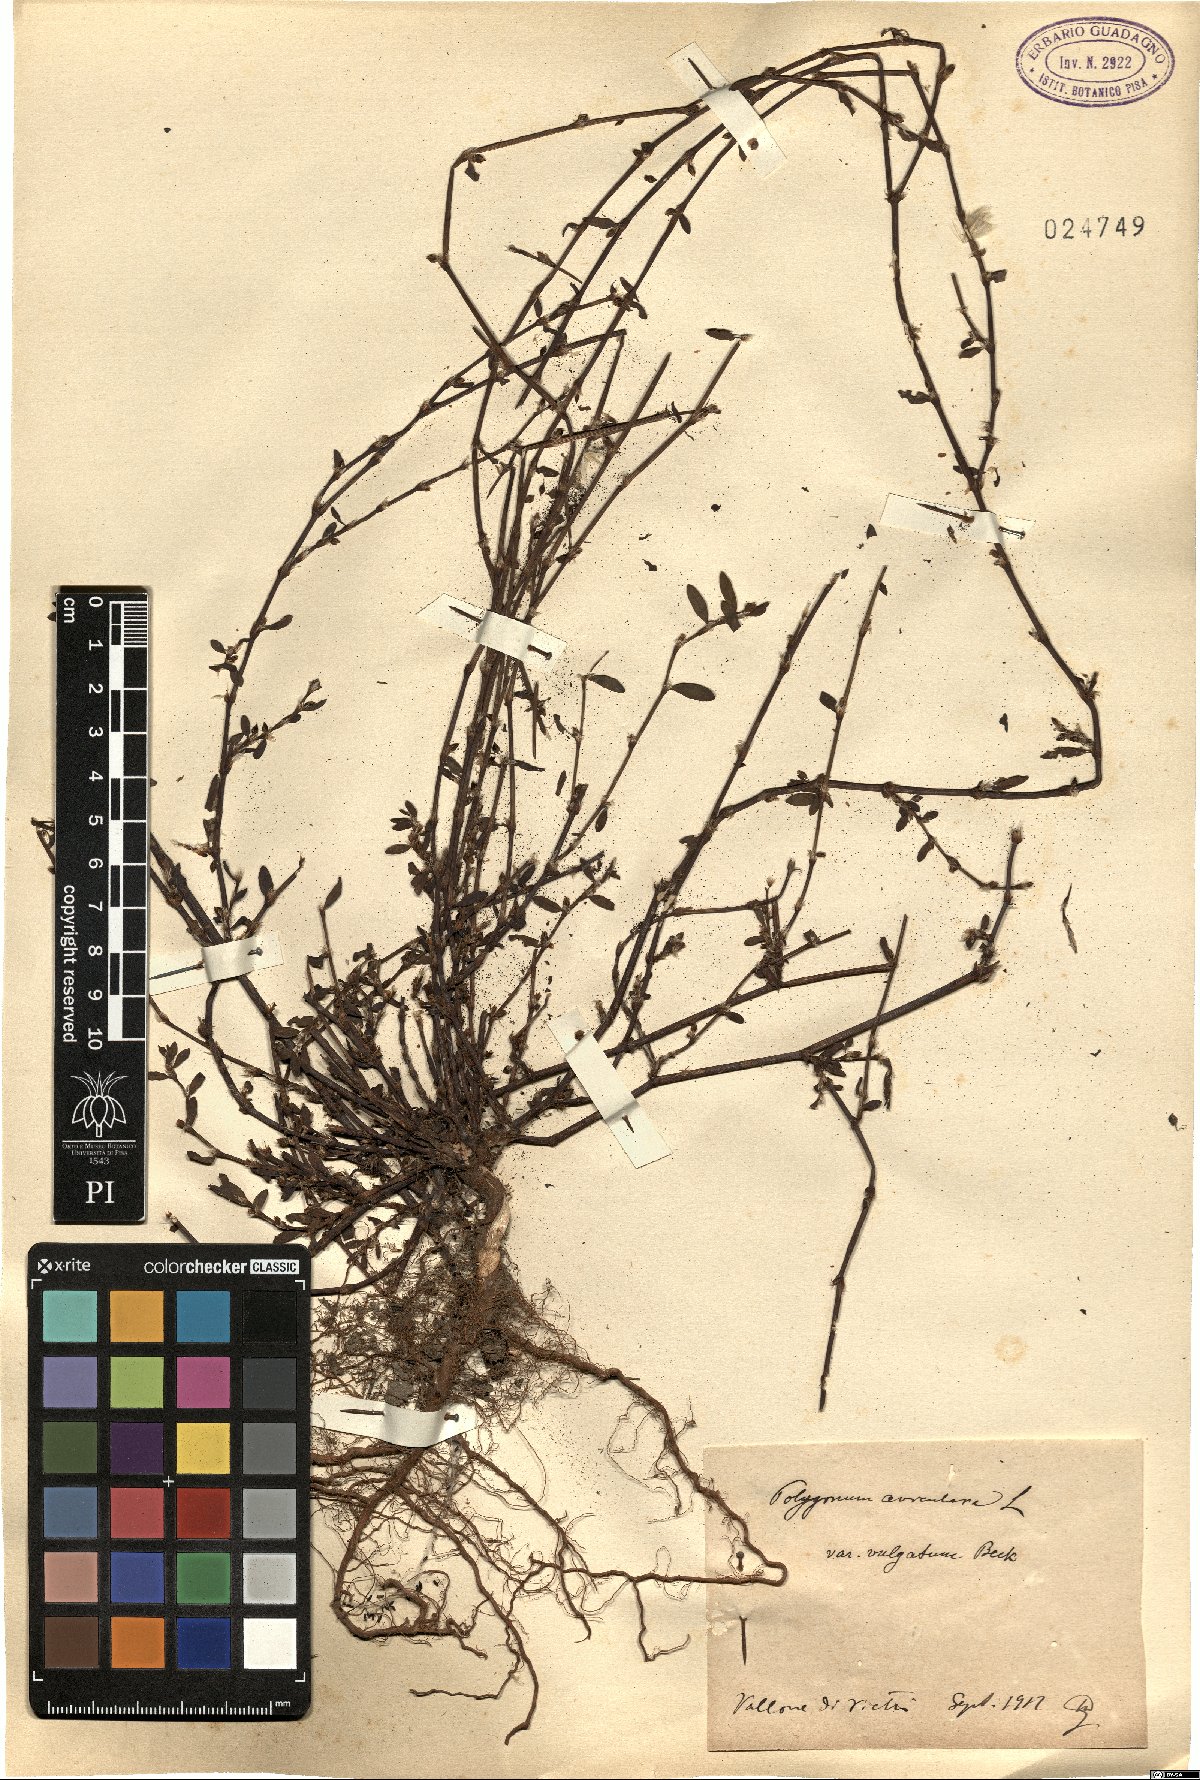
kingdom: Plantae
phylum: Tracheophyta
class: Magnoliopsida
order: Caryophyllales
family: Polygonaceae
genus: Polygonum
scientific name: Polygonum aviculare
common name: Prostrate knotweed
